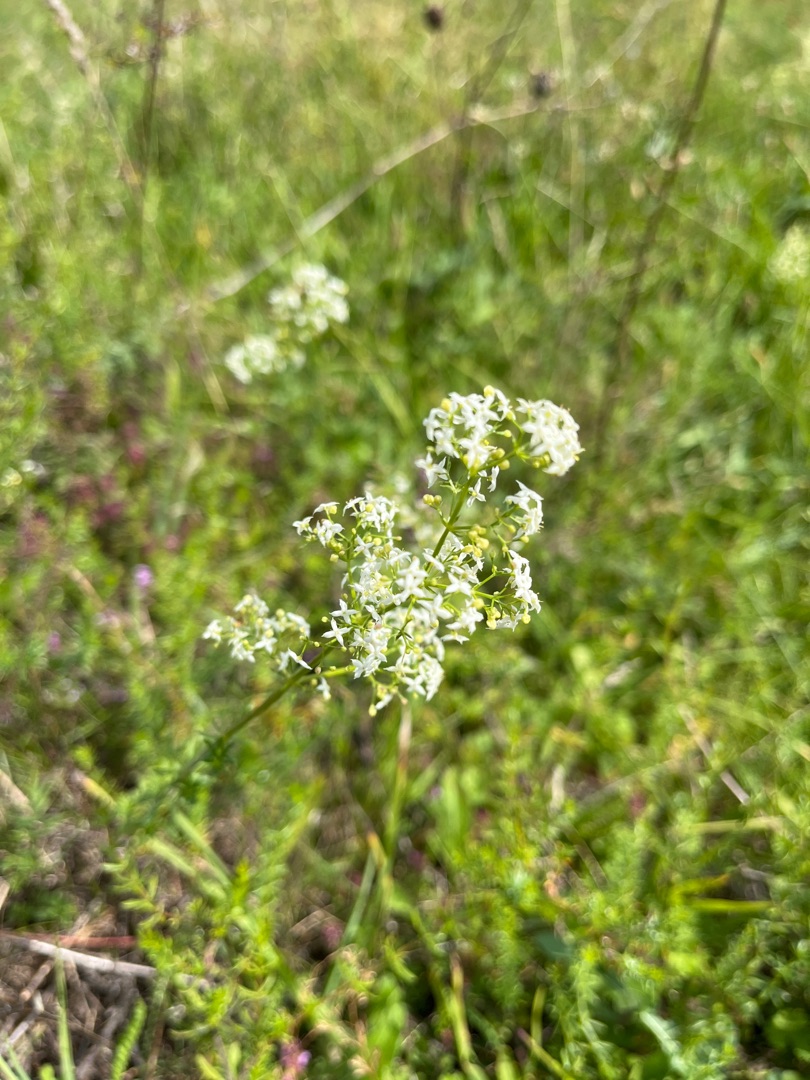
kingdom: Plantae
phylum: Tracheophyta
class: Magnoliopsida
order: Gentianales
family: Rubiaceae
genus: Galium
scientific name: Galium mollugo
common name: Hvid snerre
